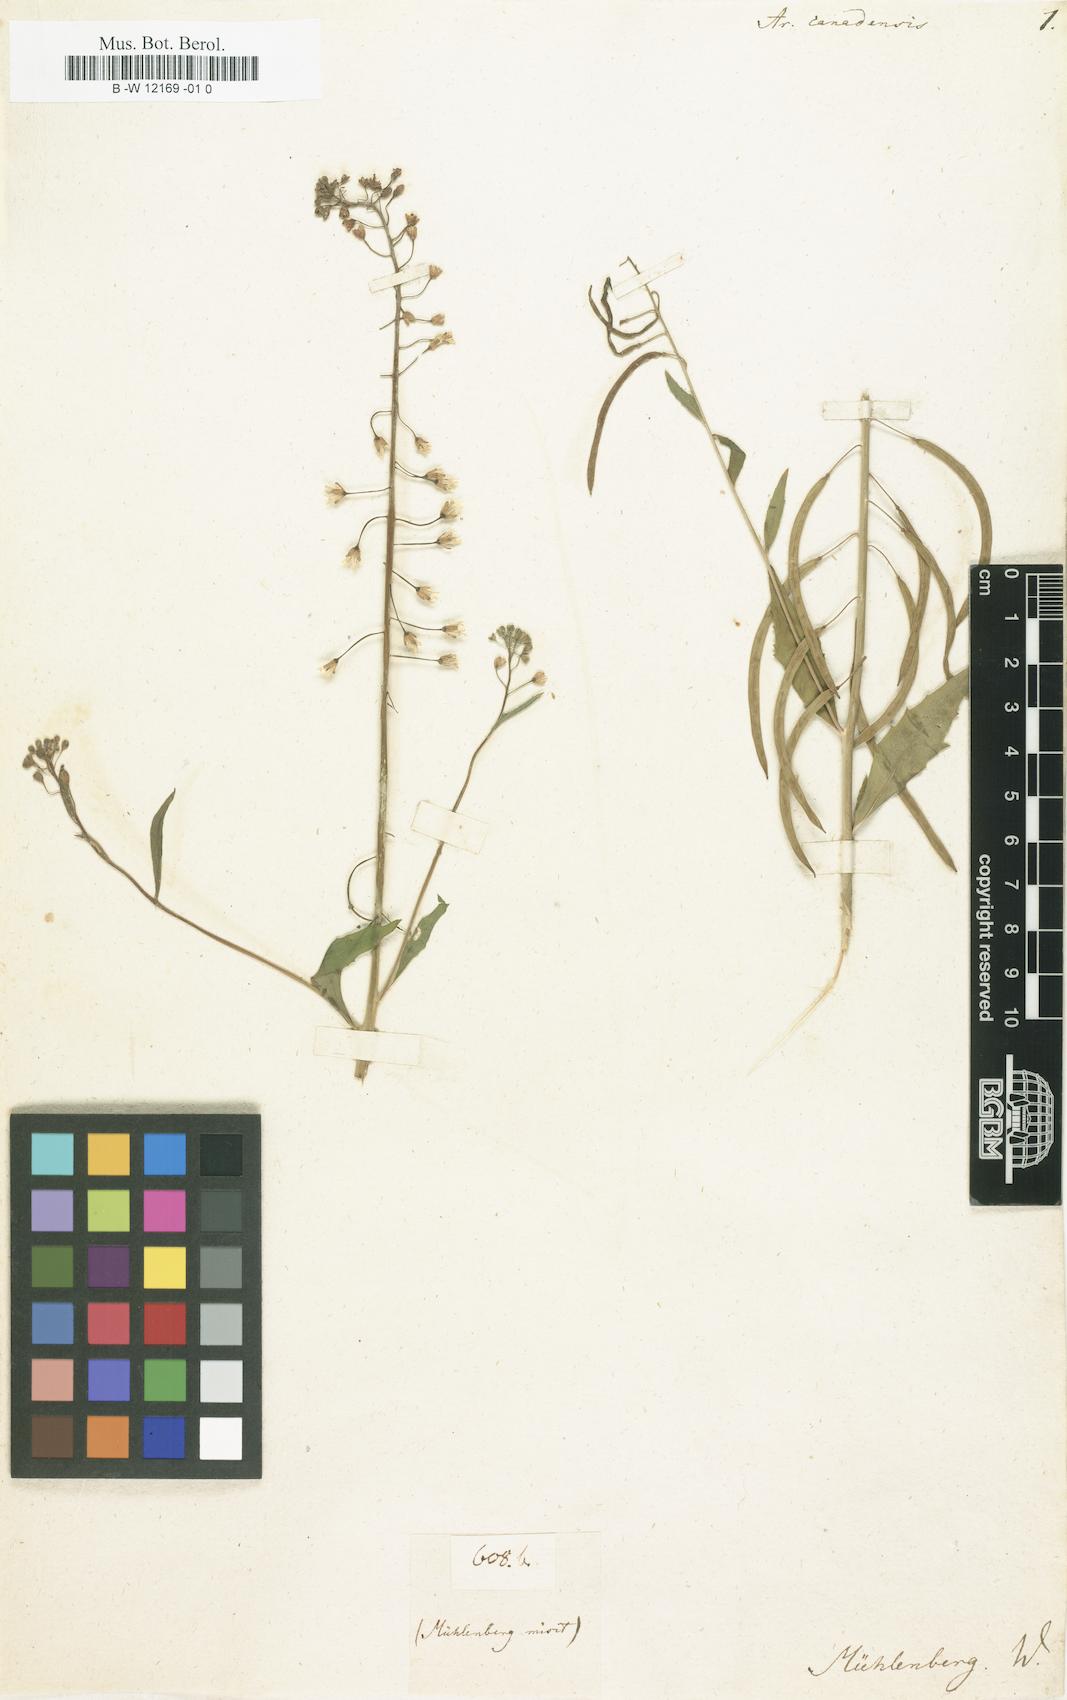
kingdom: Plantae
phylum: Tracheophyta
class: Magnoliopsida
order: Brassicales
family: Brassicaceae
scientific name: Brassicaceae
